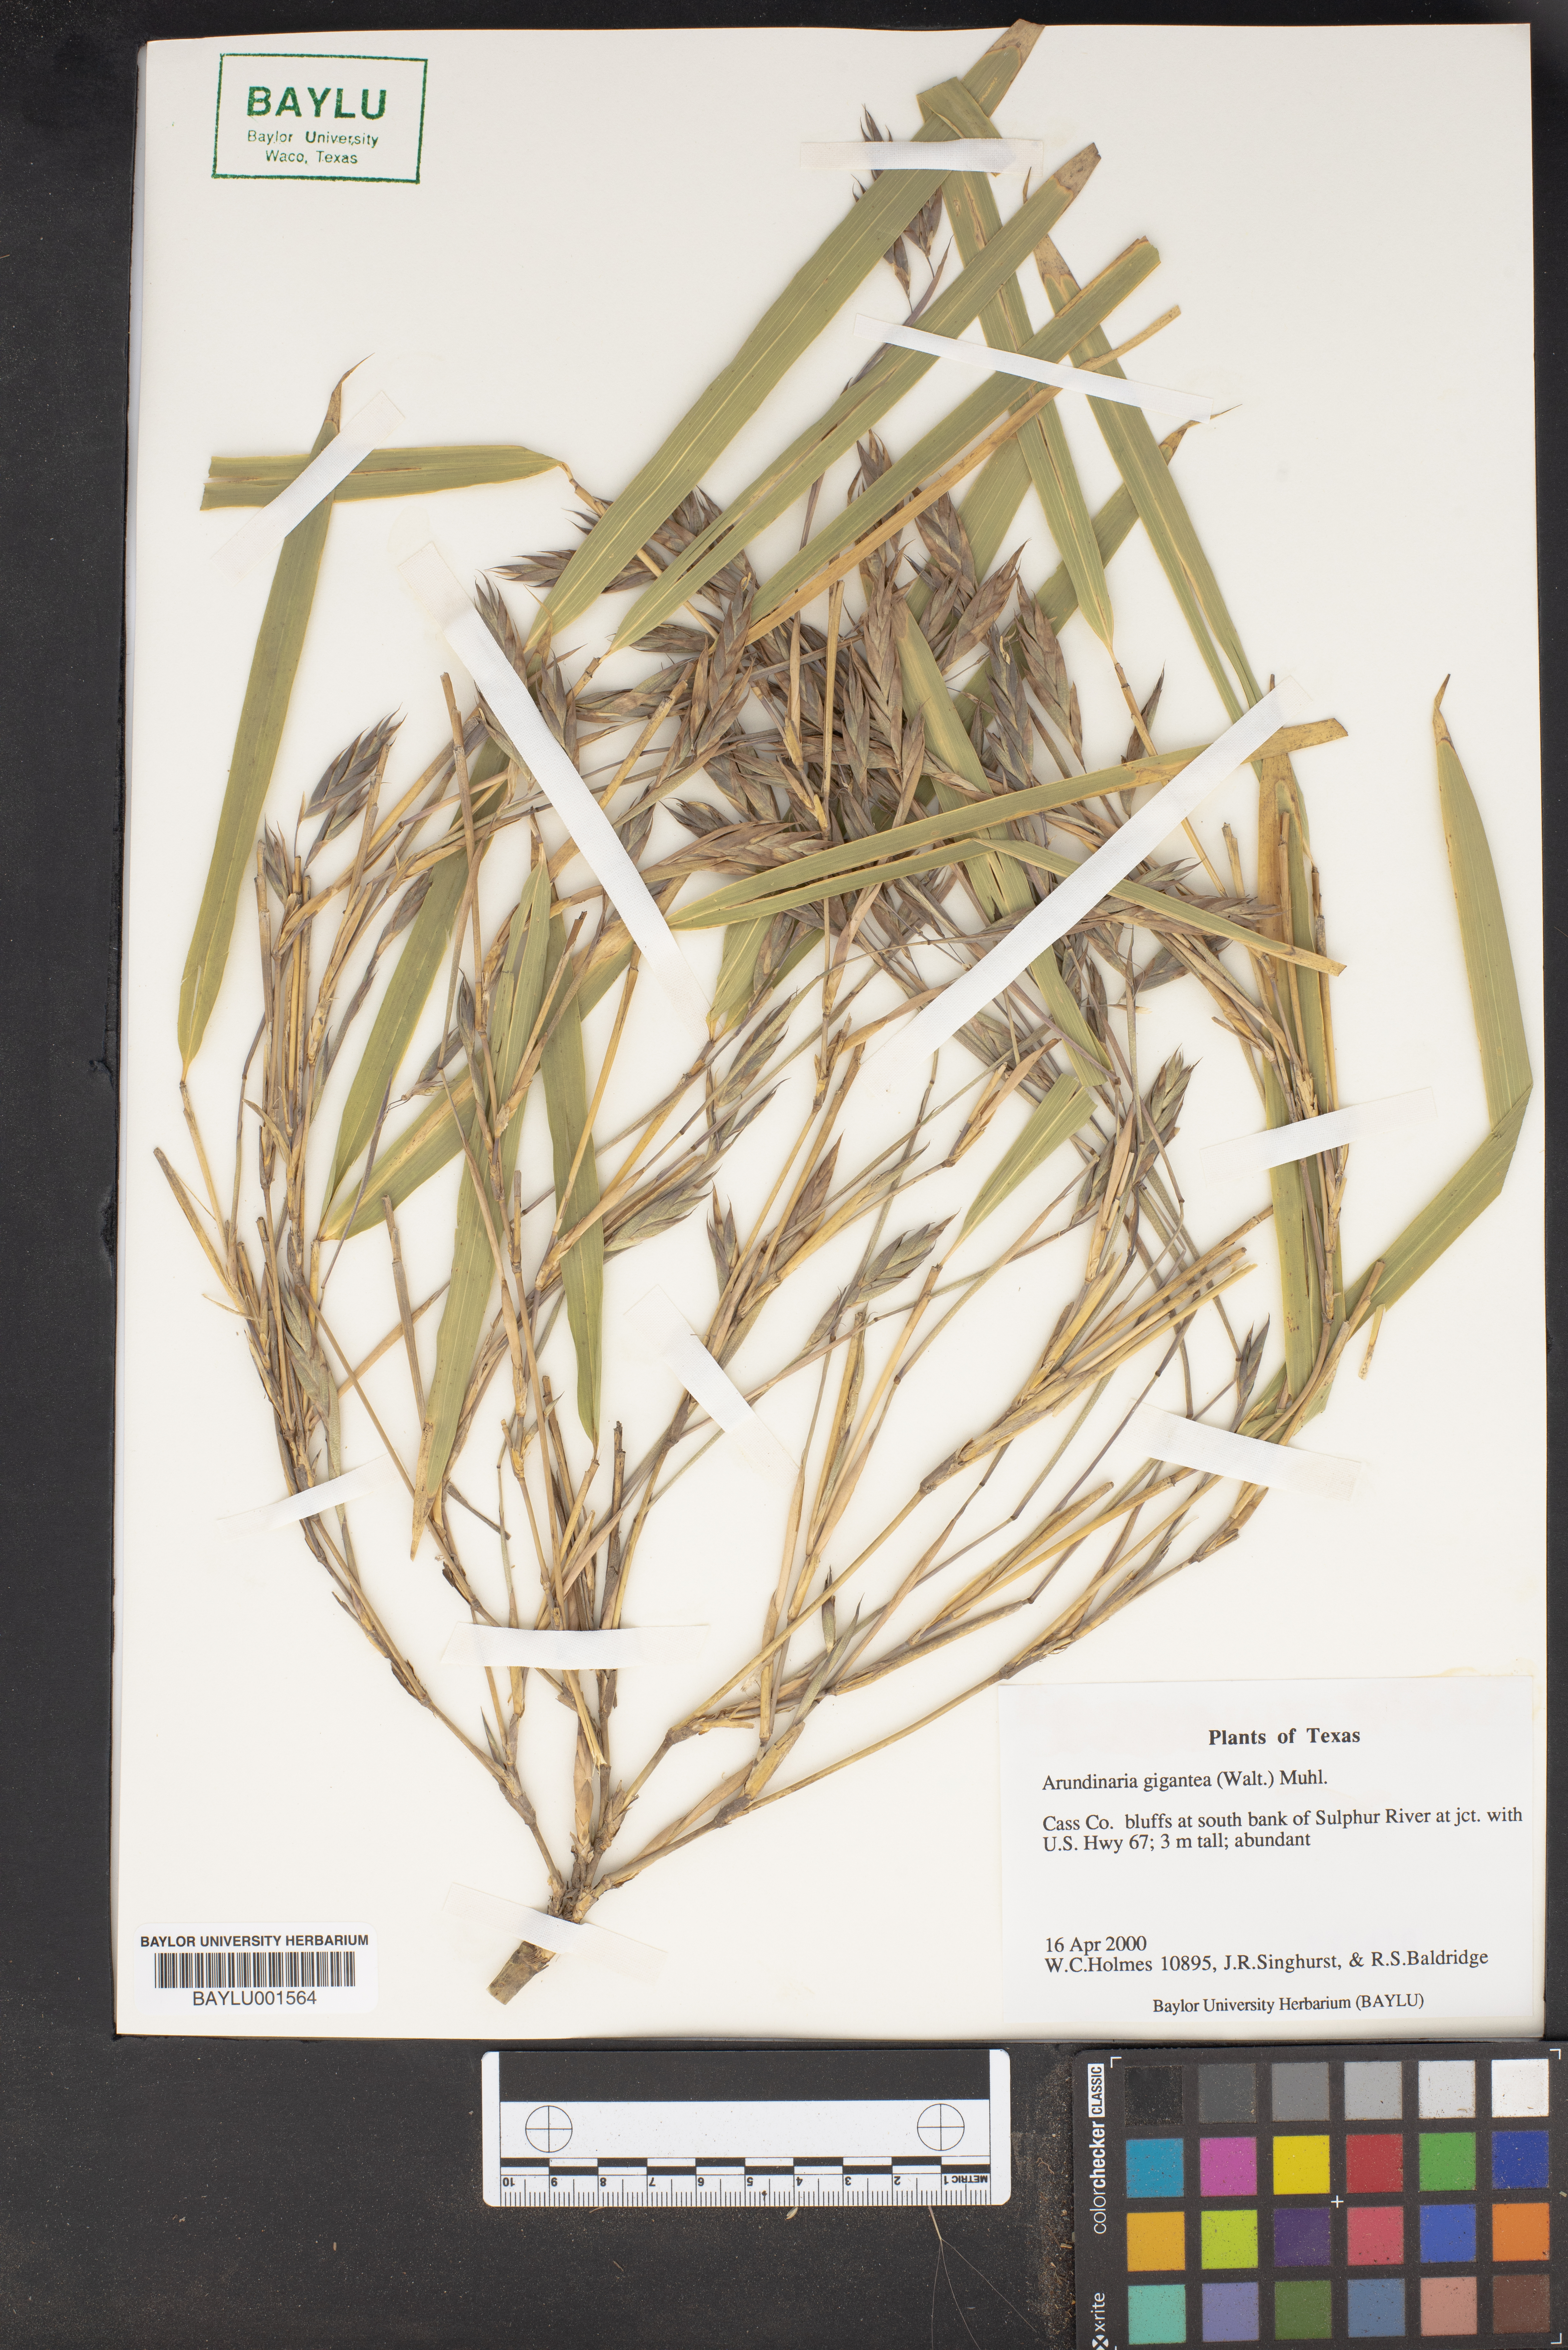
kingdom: Plantae
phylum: Tracheophyta
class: Liliopsida
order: Poales
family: Poaceae
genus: Arundinaria
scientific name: Arundinaria gigantea
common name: Giant cane
